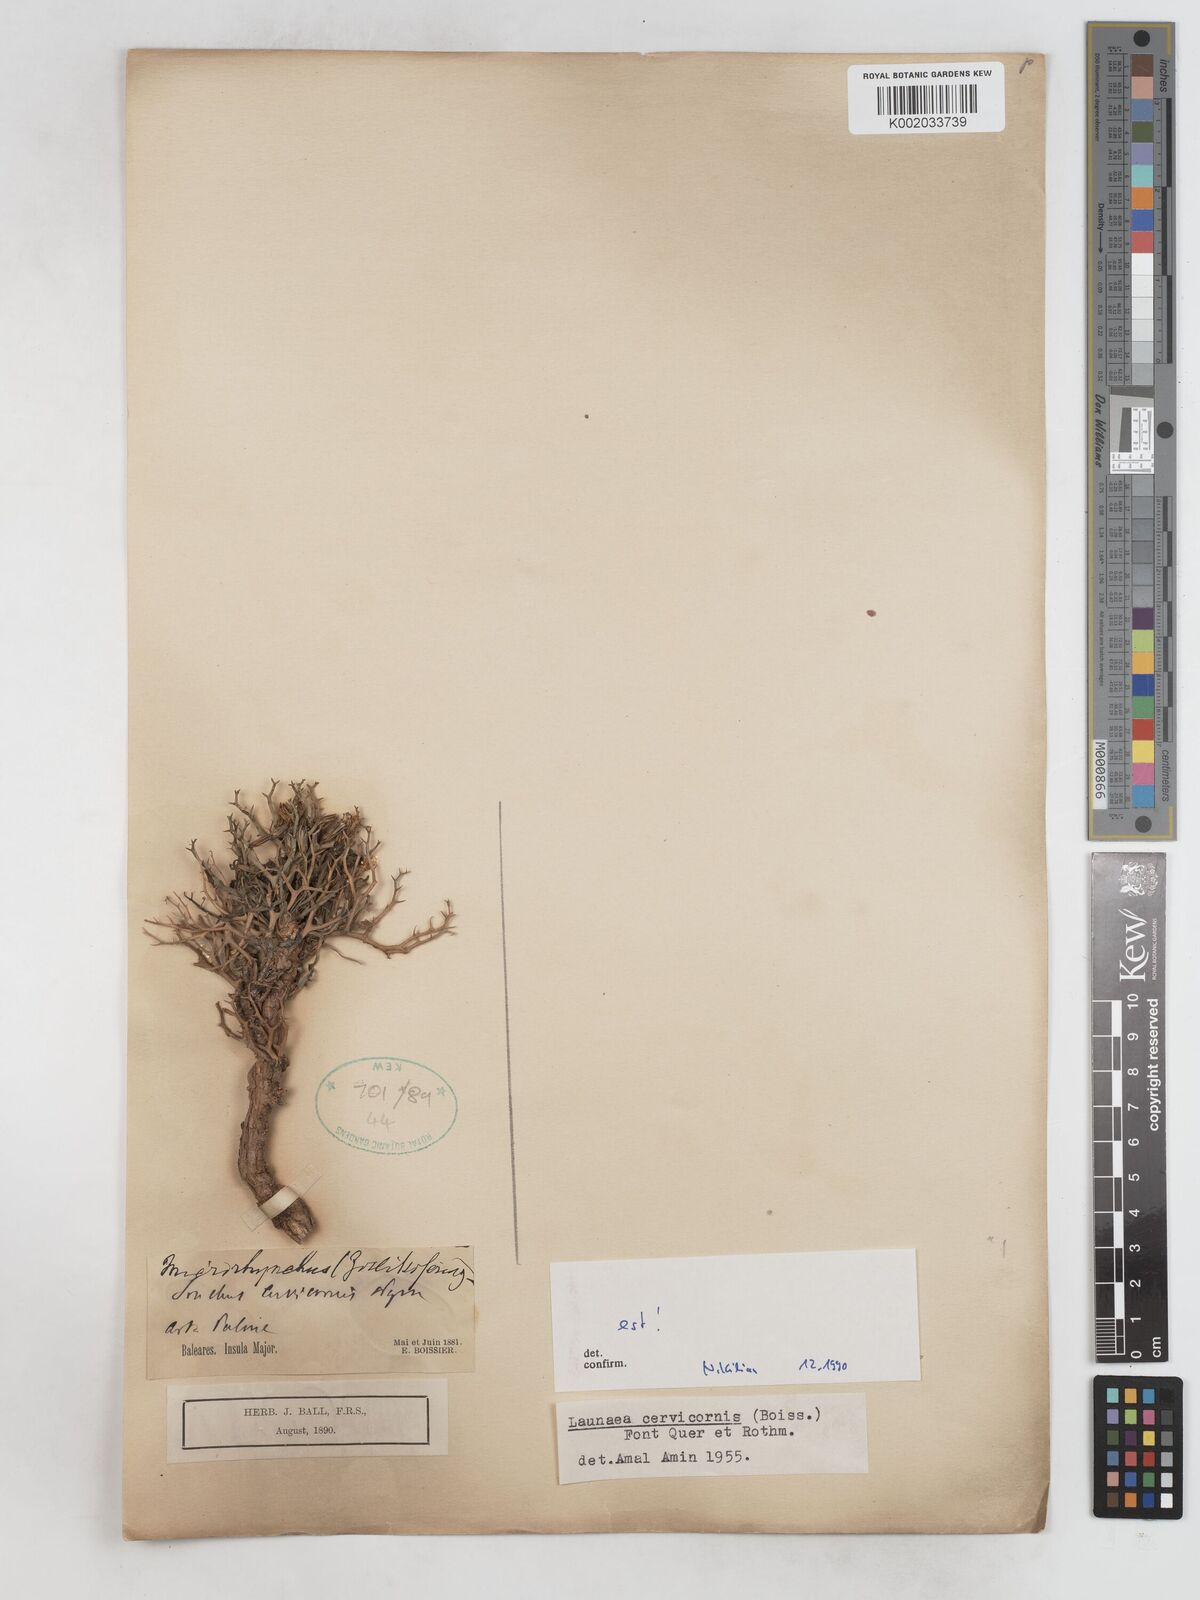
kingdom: Plantae
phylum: Tracheophyta
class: Magnoliopsida
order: Asterales
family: Asteraceae
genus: Launaea
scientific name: Launaea cervicornis
